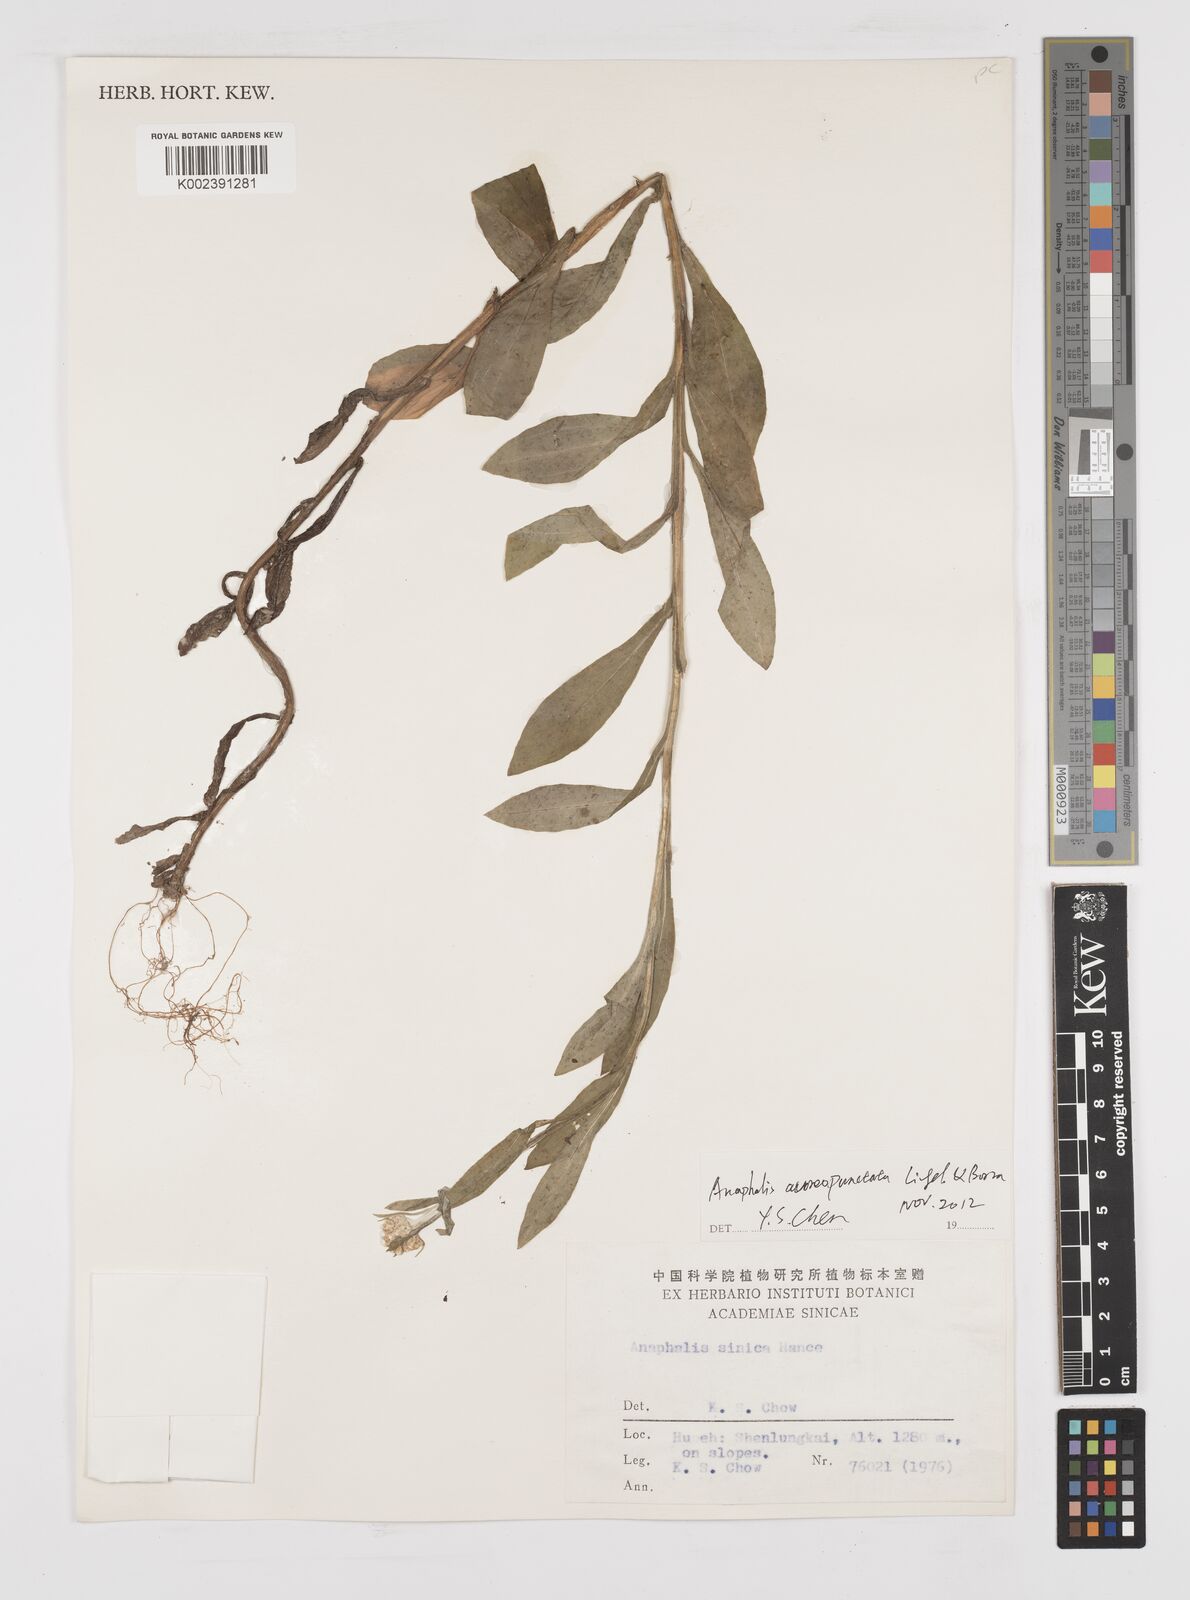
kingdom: Plantae
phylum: Tracheophyta
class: Magnoliopsida
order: Asterales
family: Asteraceae
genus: Anaphalis
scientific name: Anaphalis sinica
